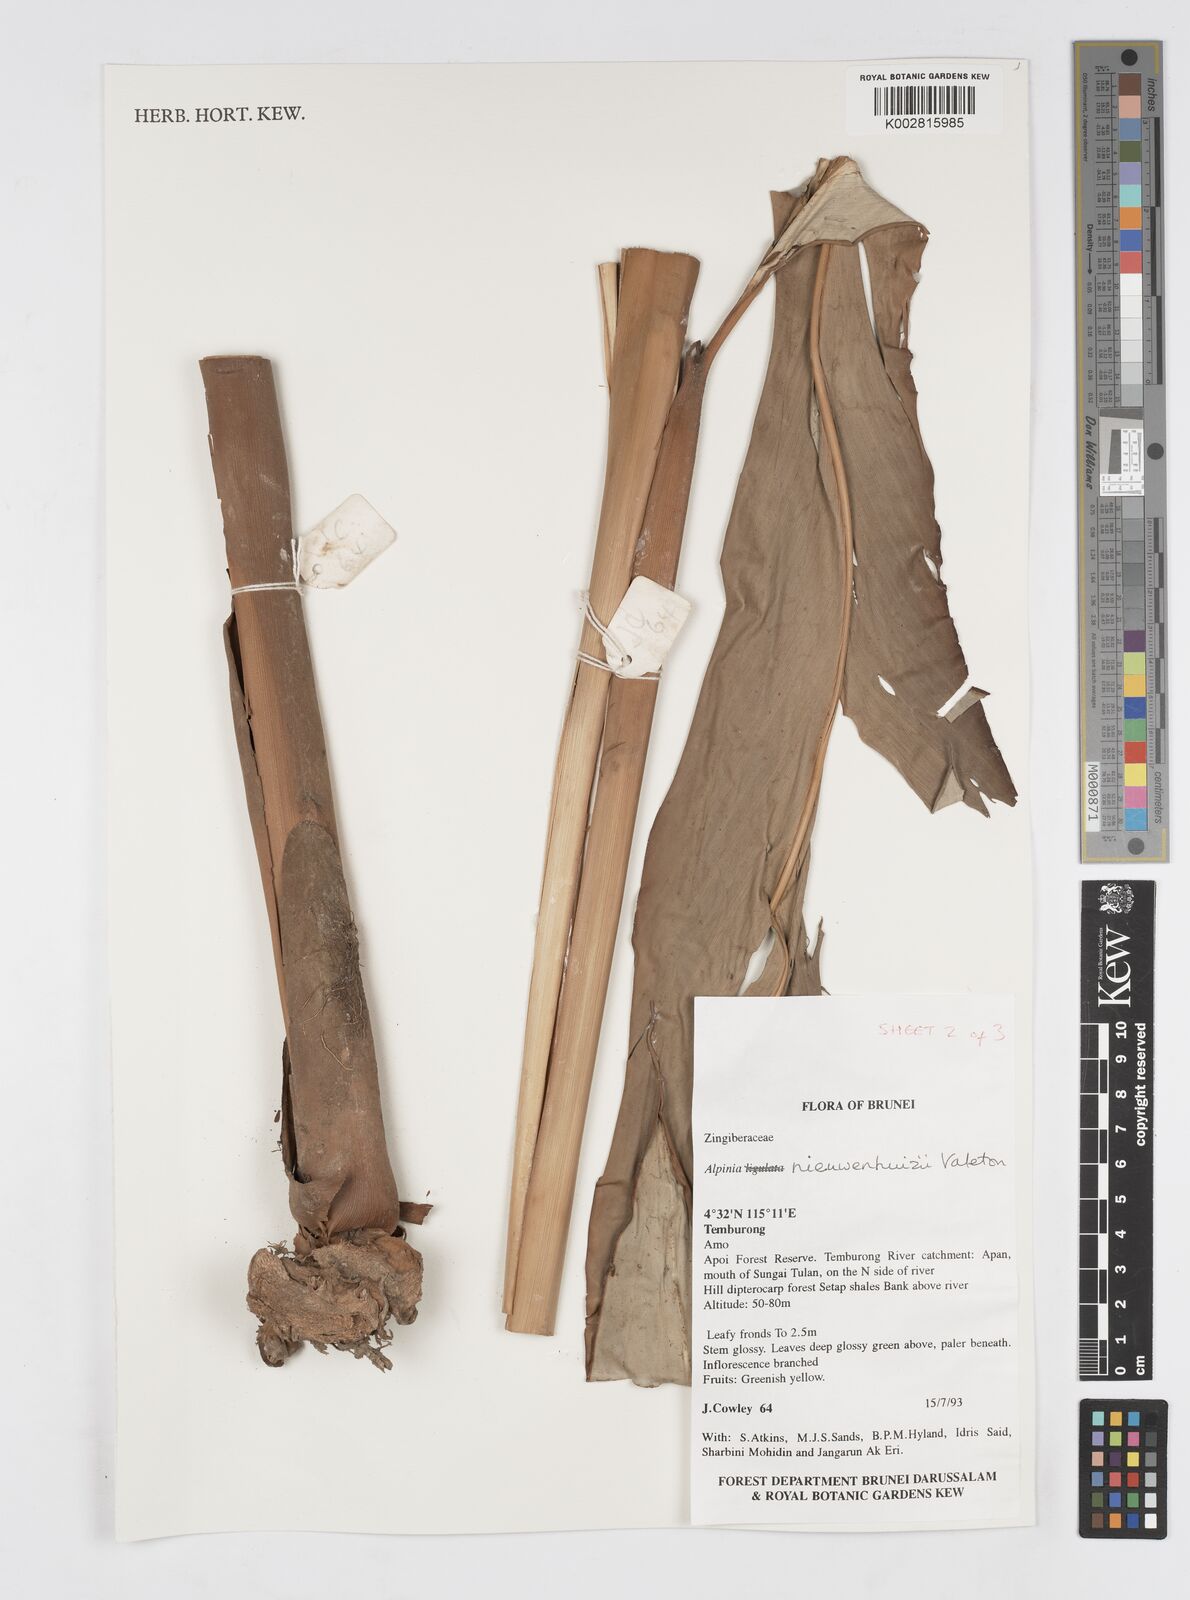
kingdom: Plantae
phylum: Tracheophyta
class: Liliopsida
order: Zingiberales
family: Zingiberaceae
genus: Alpinia
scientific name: Alpinia nieuwenhuizii
